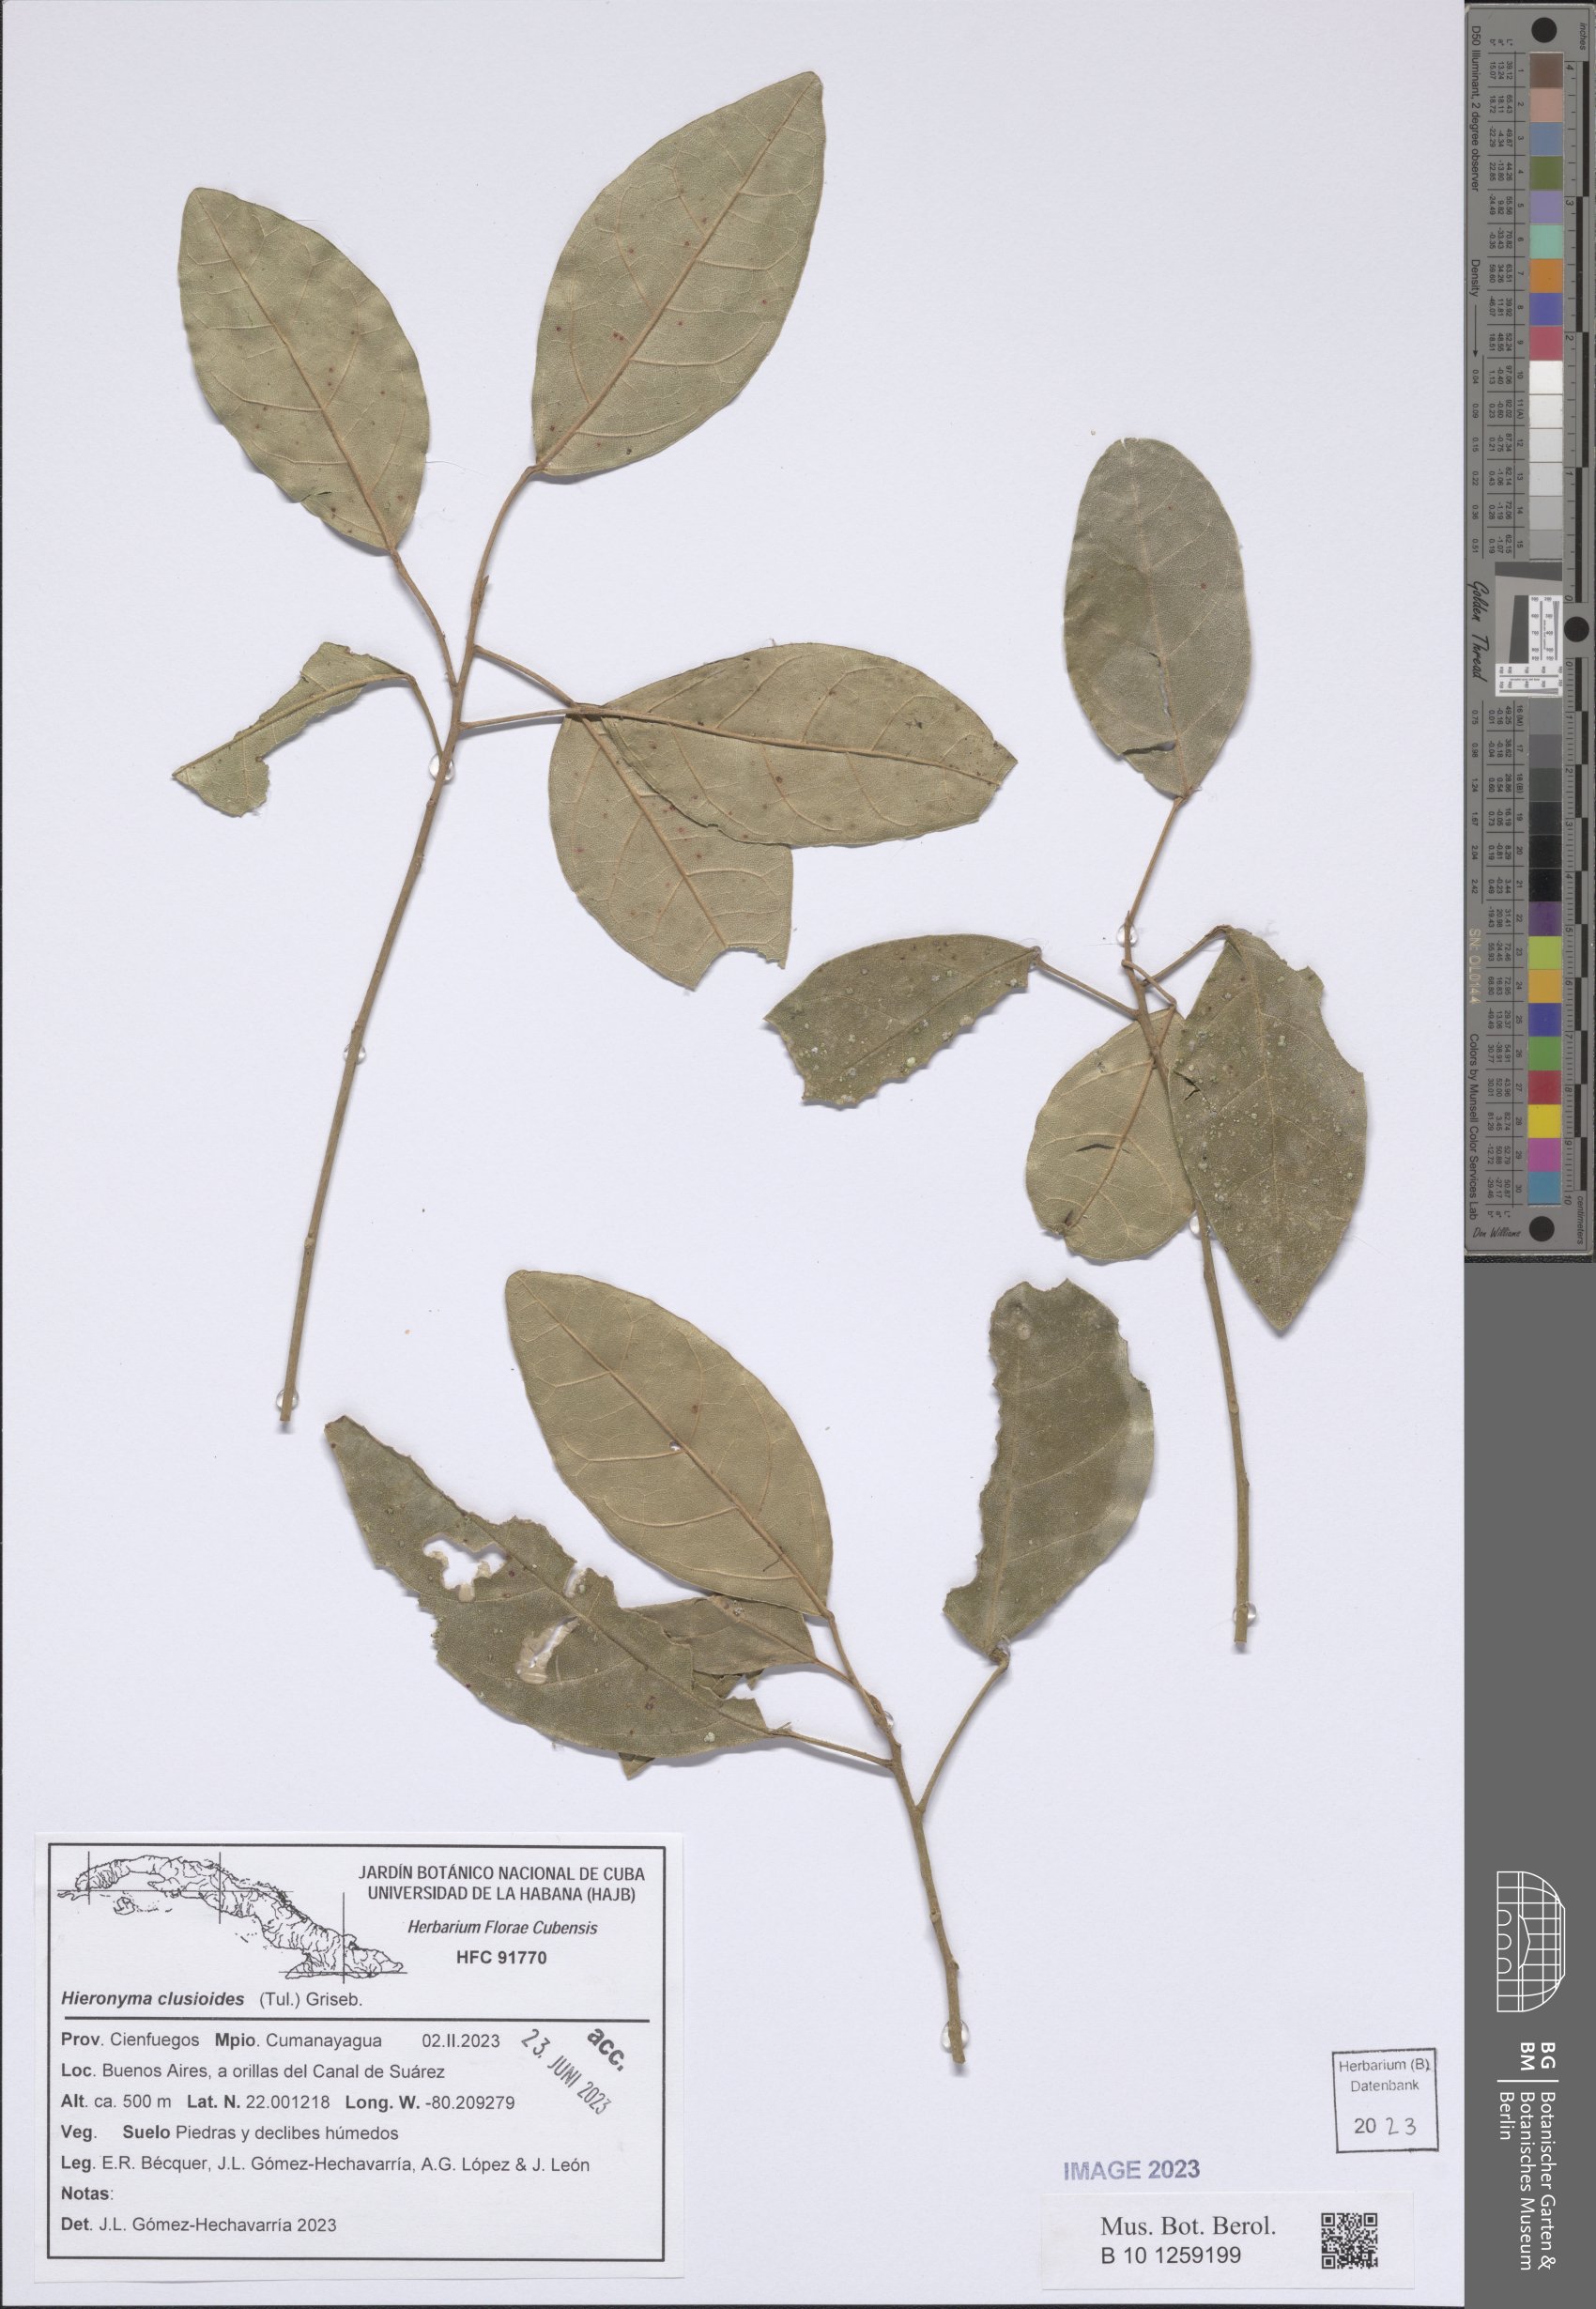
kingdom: Plantae
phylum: Tracheophyta
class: Magnoliopsida
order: Malpighiales
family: Phyllanthaceae
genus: Hieronyma
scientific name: Hieronyma clusioides
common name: Cedro macho
